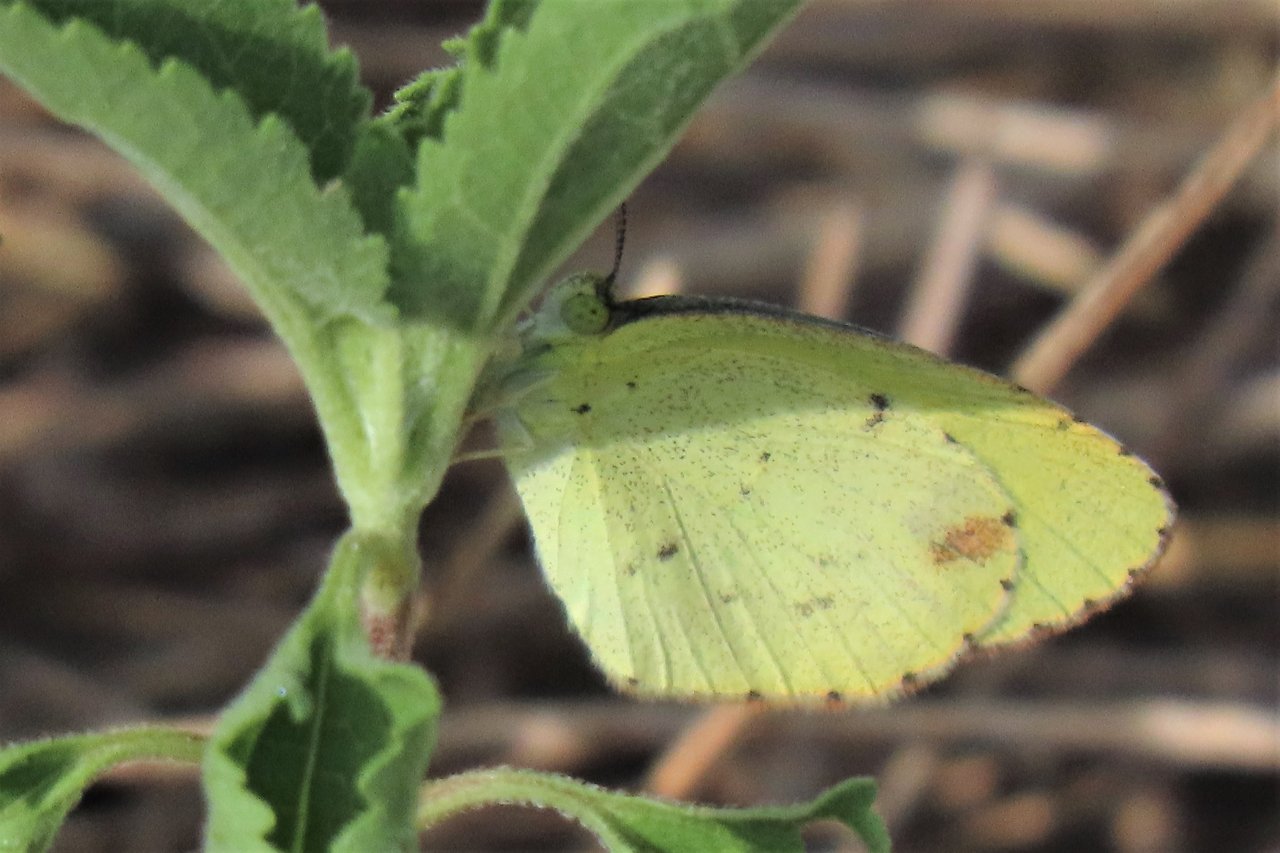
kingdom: Animalia
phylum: Arthropoda
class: Insecta
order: Lepidoptera
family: Pieridae
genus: Pyrisitia
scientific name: Pyrisitia lisa
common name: Little Yellow
